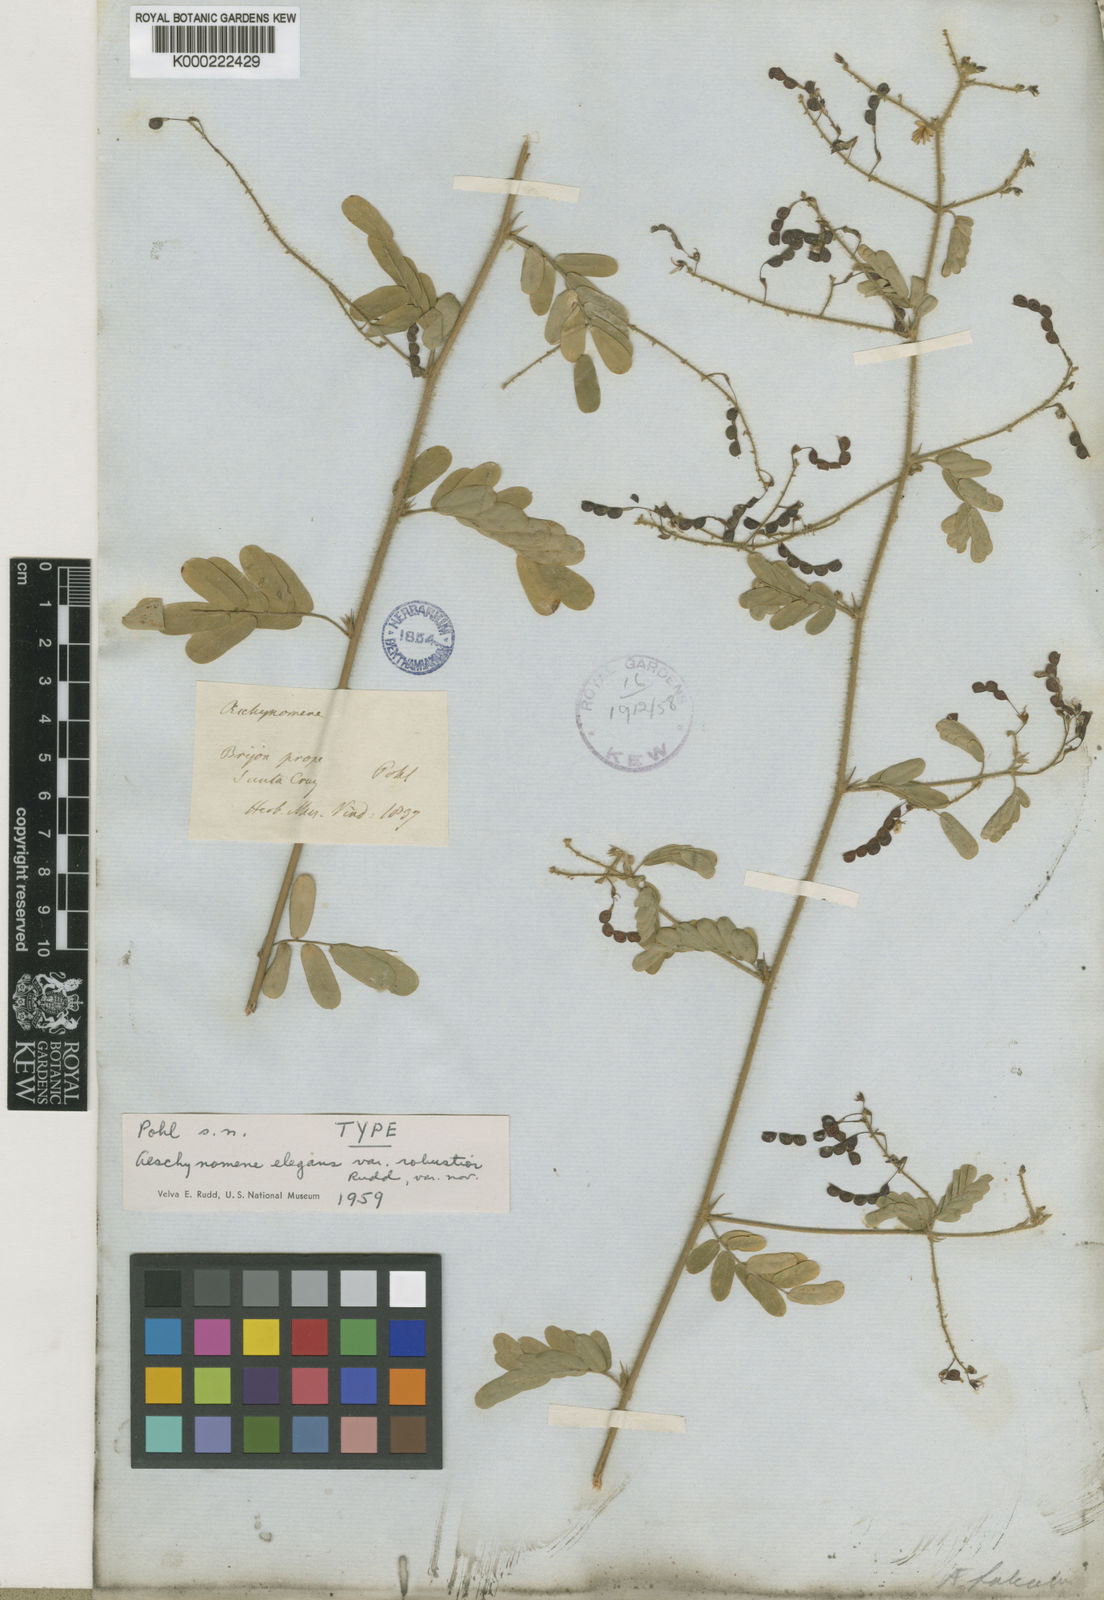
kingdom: Plantae
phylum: Tracheophyta
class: Magnoliopsida
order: Fabales
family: Fabaceae
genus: Ctenodon
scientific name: Ctenodon elegans
